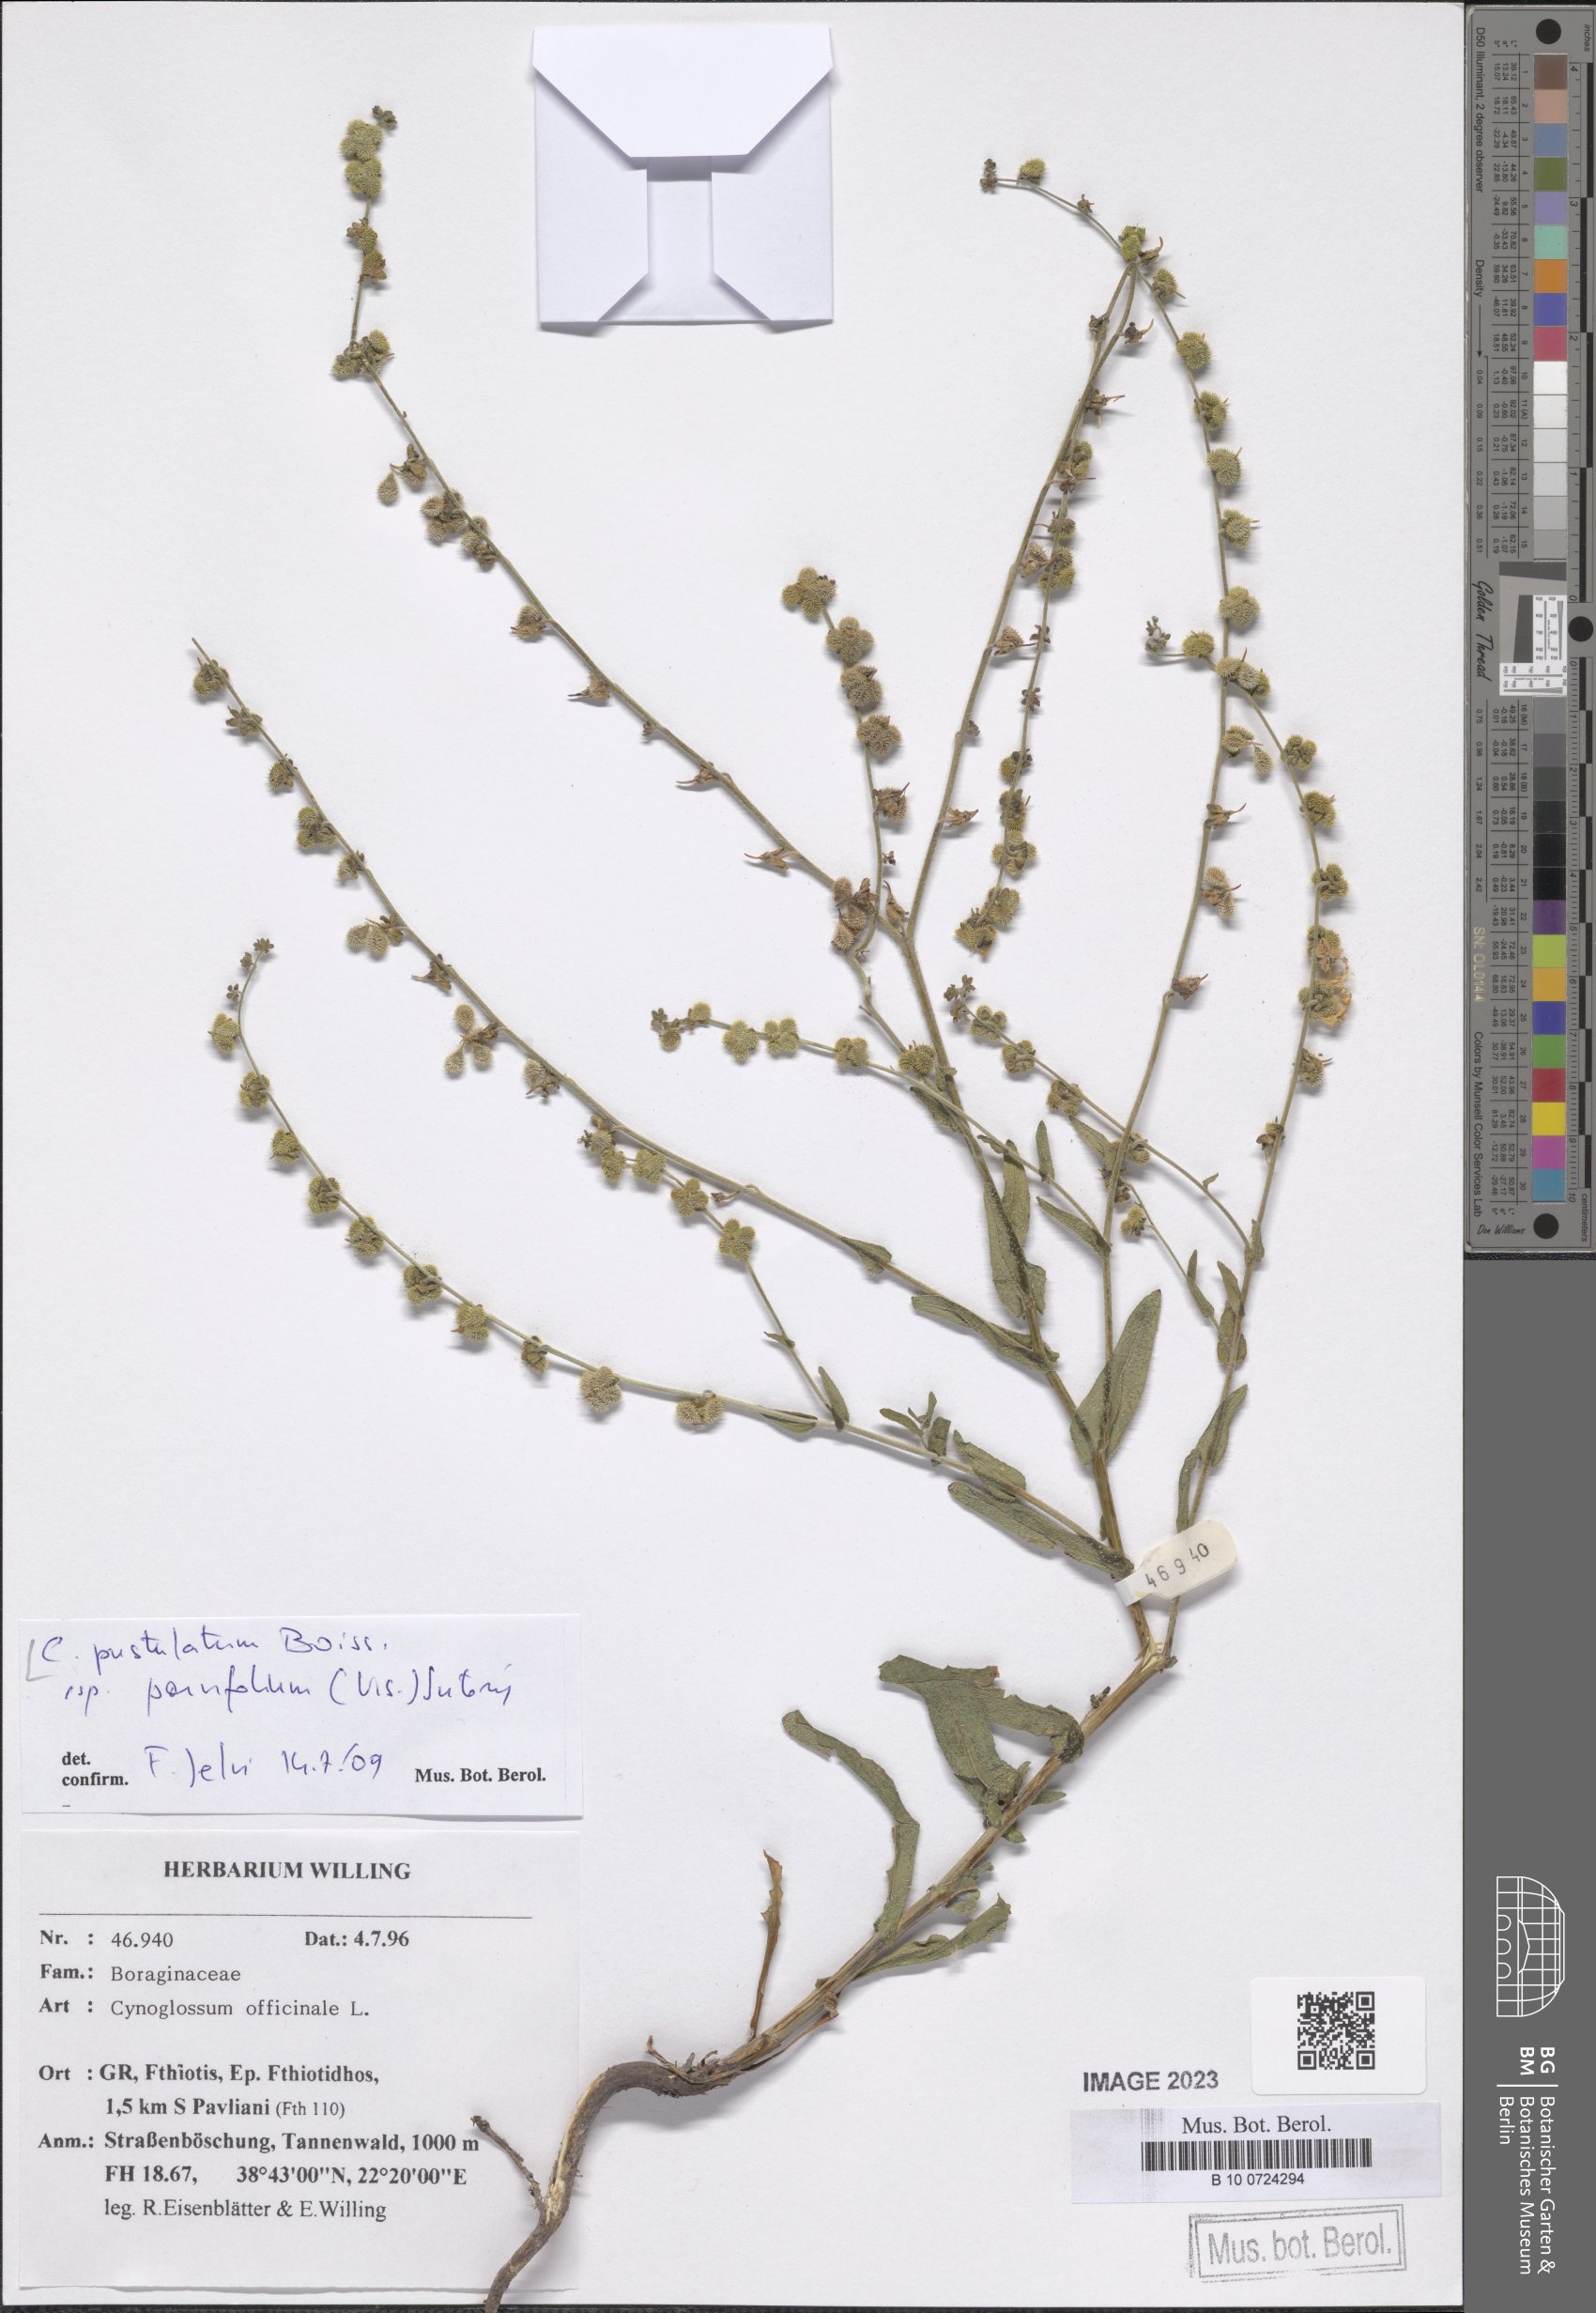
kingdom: Plantae
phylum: Tracheophyta
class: Magnoliopsida
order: Boraginales
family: Boraginaceae
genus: Cynoglossum
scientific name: Cynoglossum pustulatum
